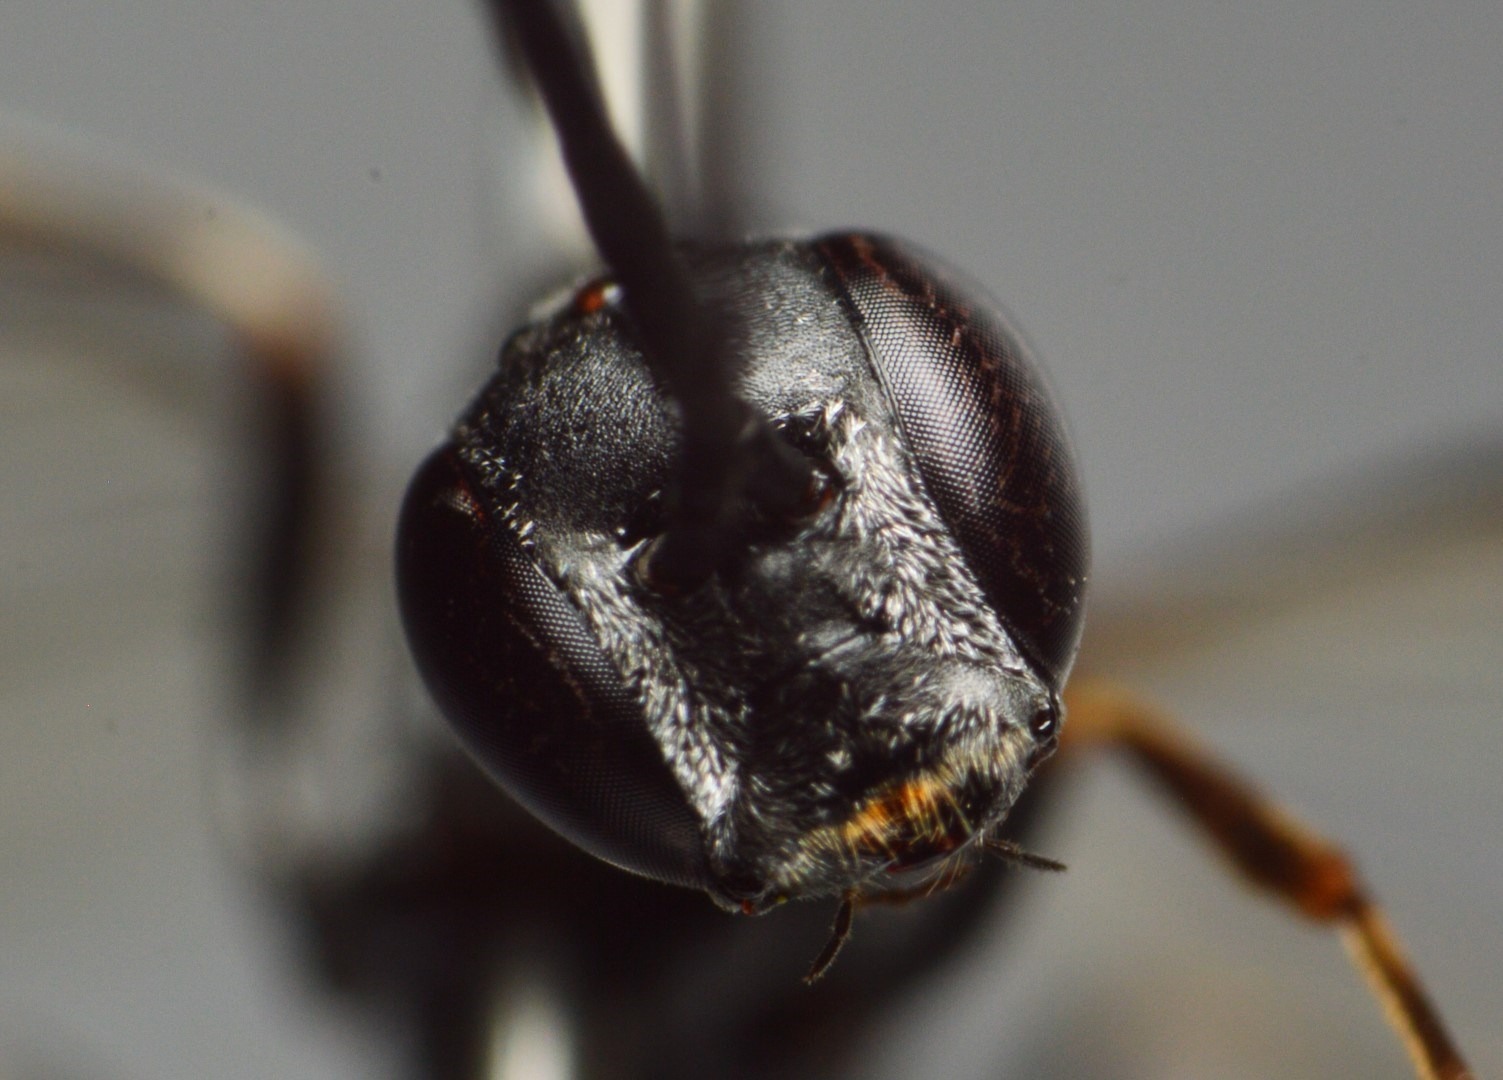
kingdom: Animalia
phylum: Arthropoda
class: Insecta
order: Hymenoptera
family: Gasteruptiidae
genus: Gasteruption
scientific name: Gasteruption jaculator
